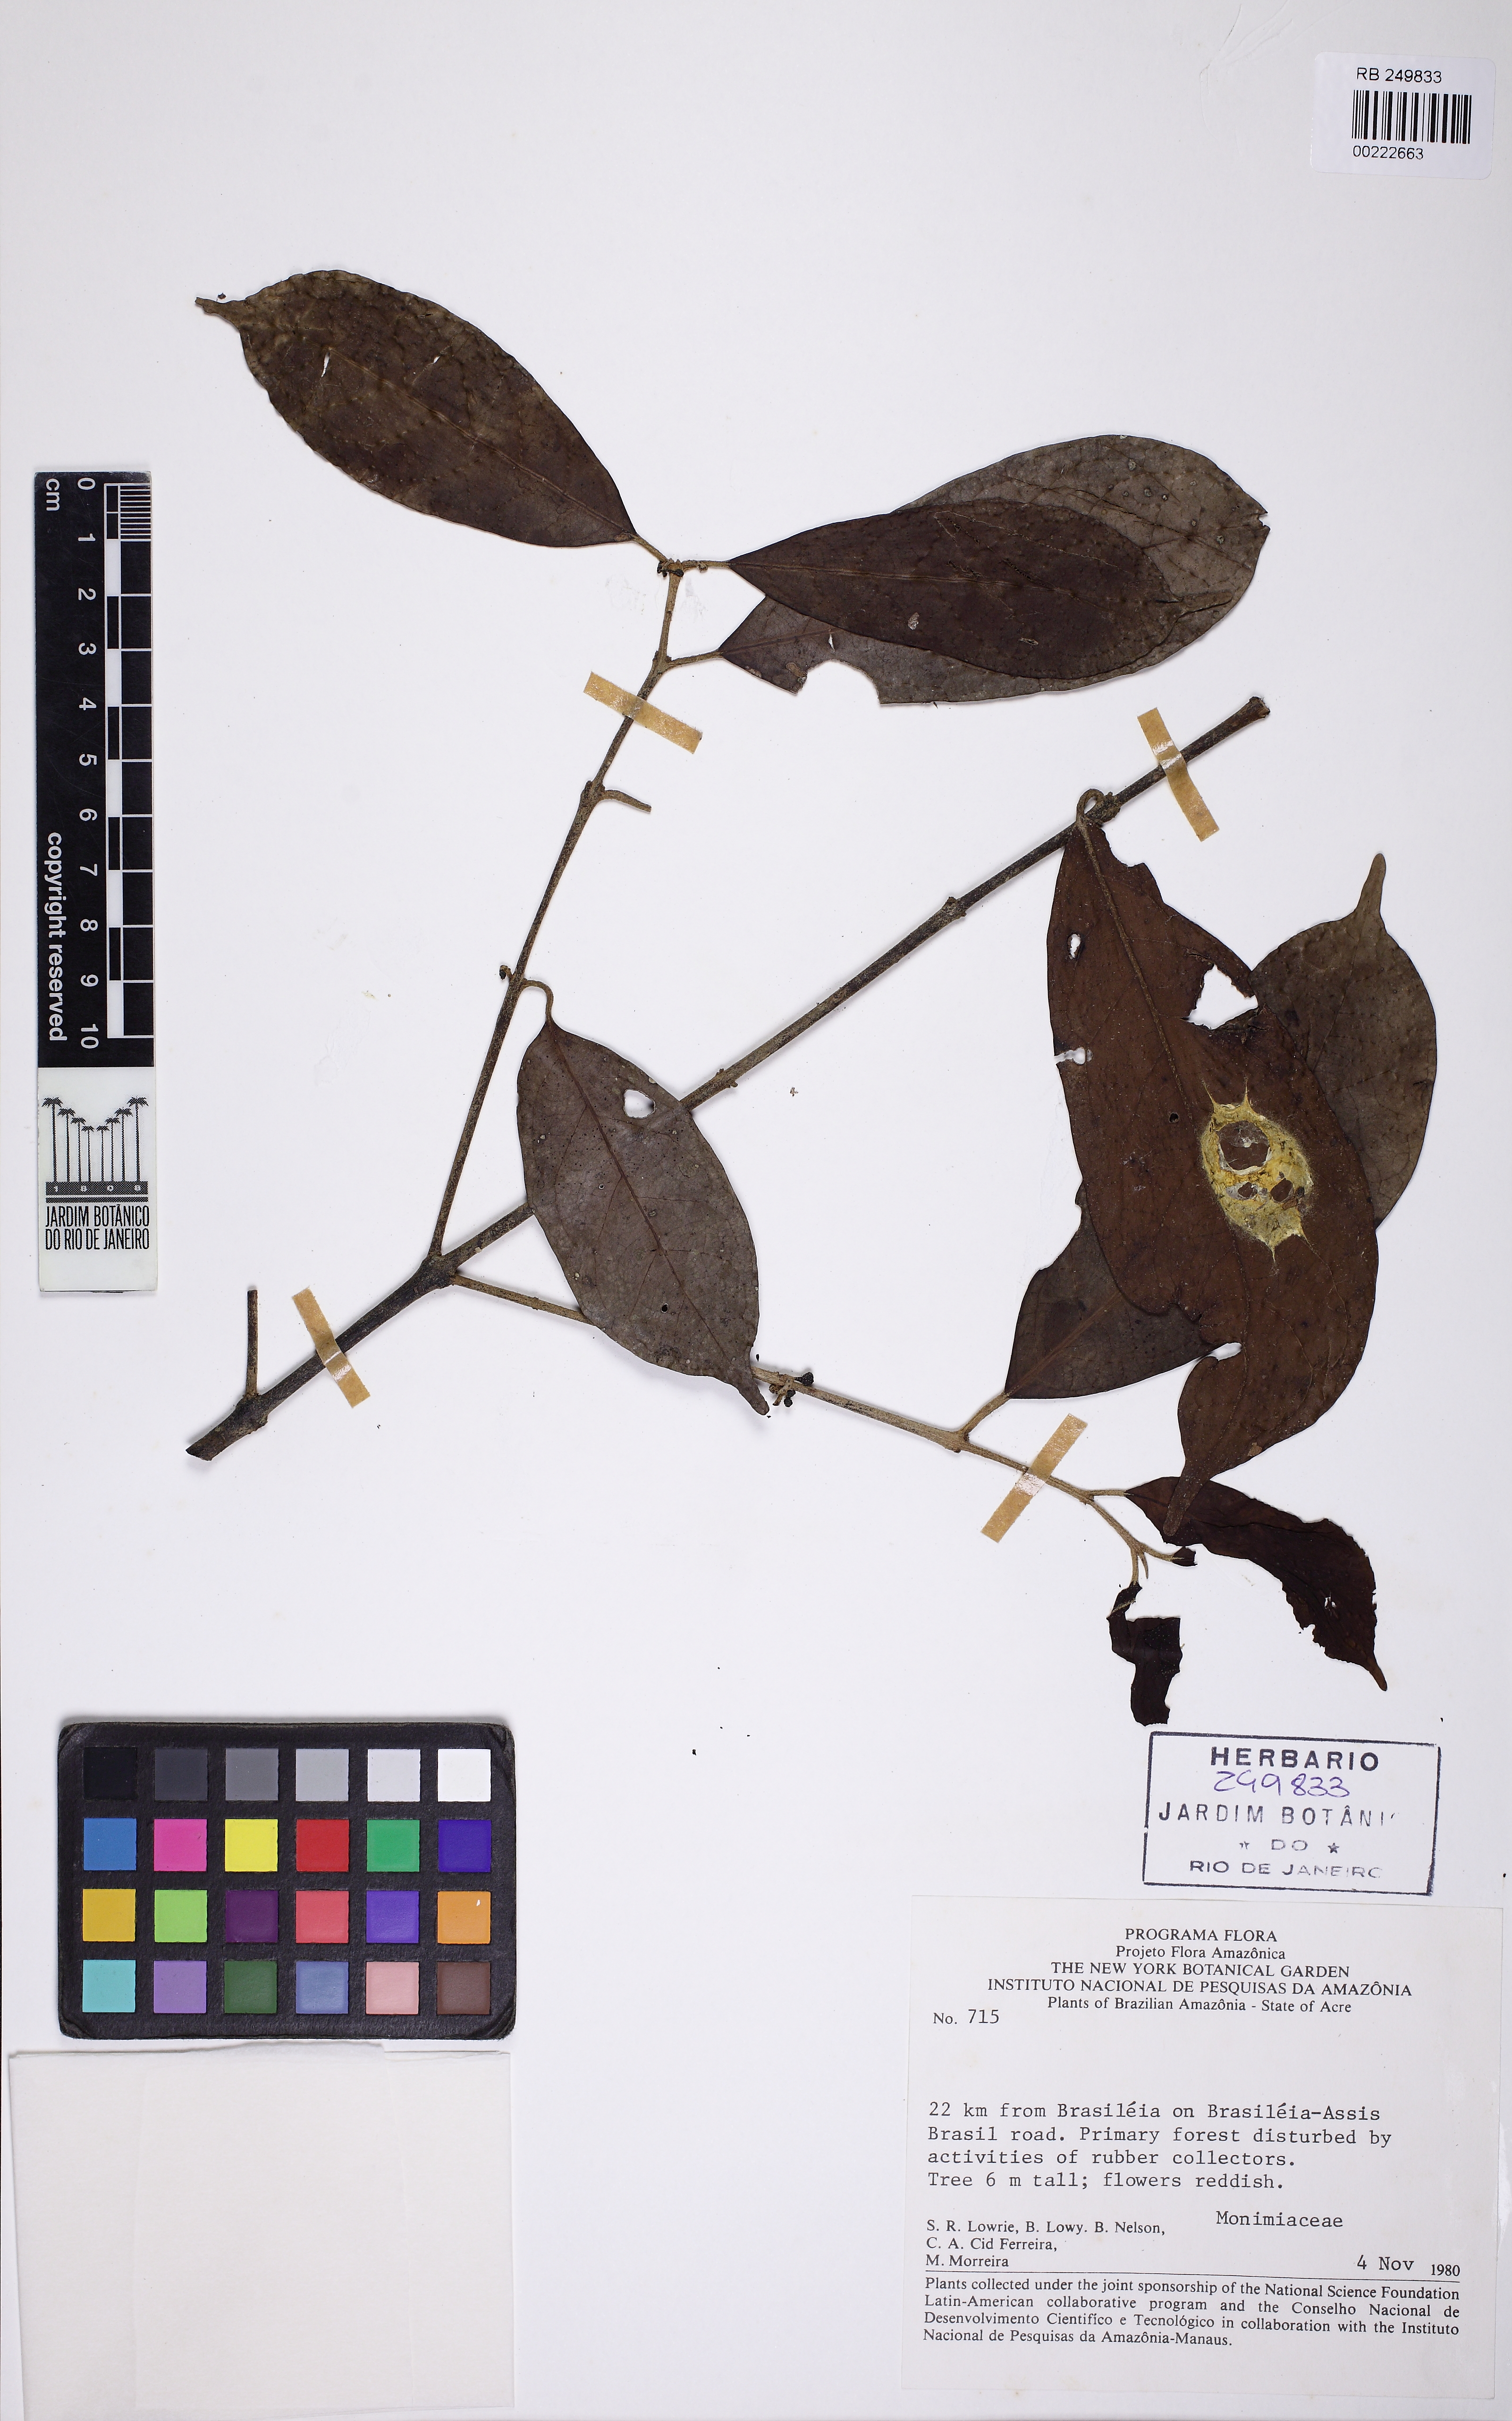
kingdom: Plantae
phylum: Tracheophyta
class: Magnoliopsida
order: Laurales
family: Siparunaceae
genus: Siparuna
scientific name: Siparuna cuspidata
